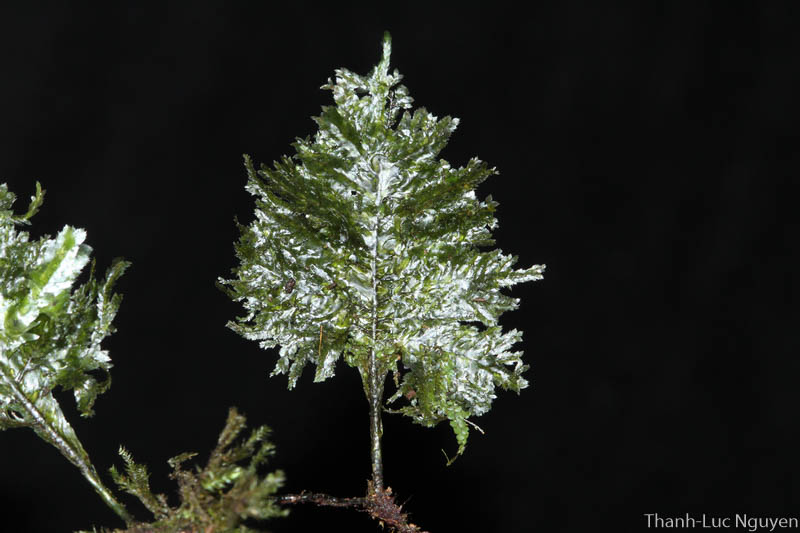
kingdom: Plantae
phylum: Bryophyta
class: Bryopsida
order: Hypnales
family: Neckeraceae
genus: Homaliodendron
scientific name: Homaliodendron
